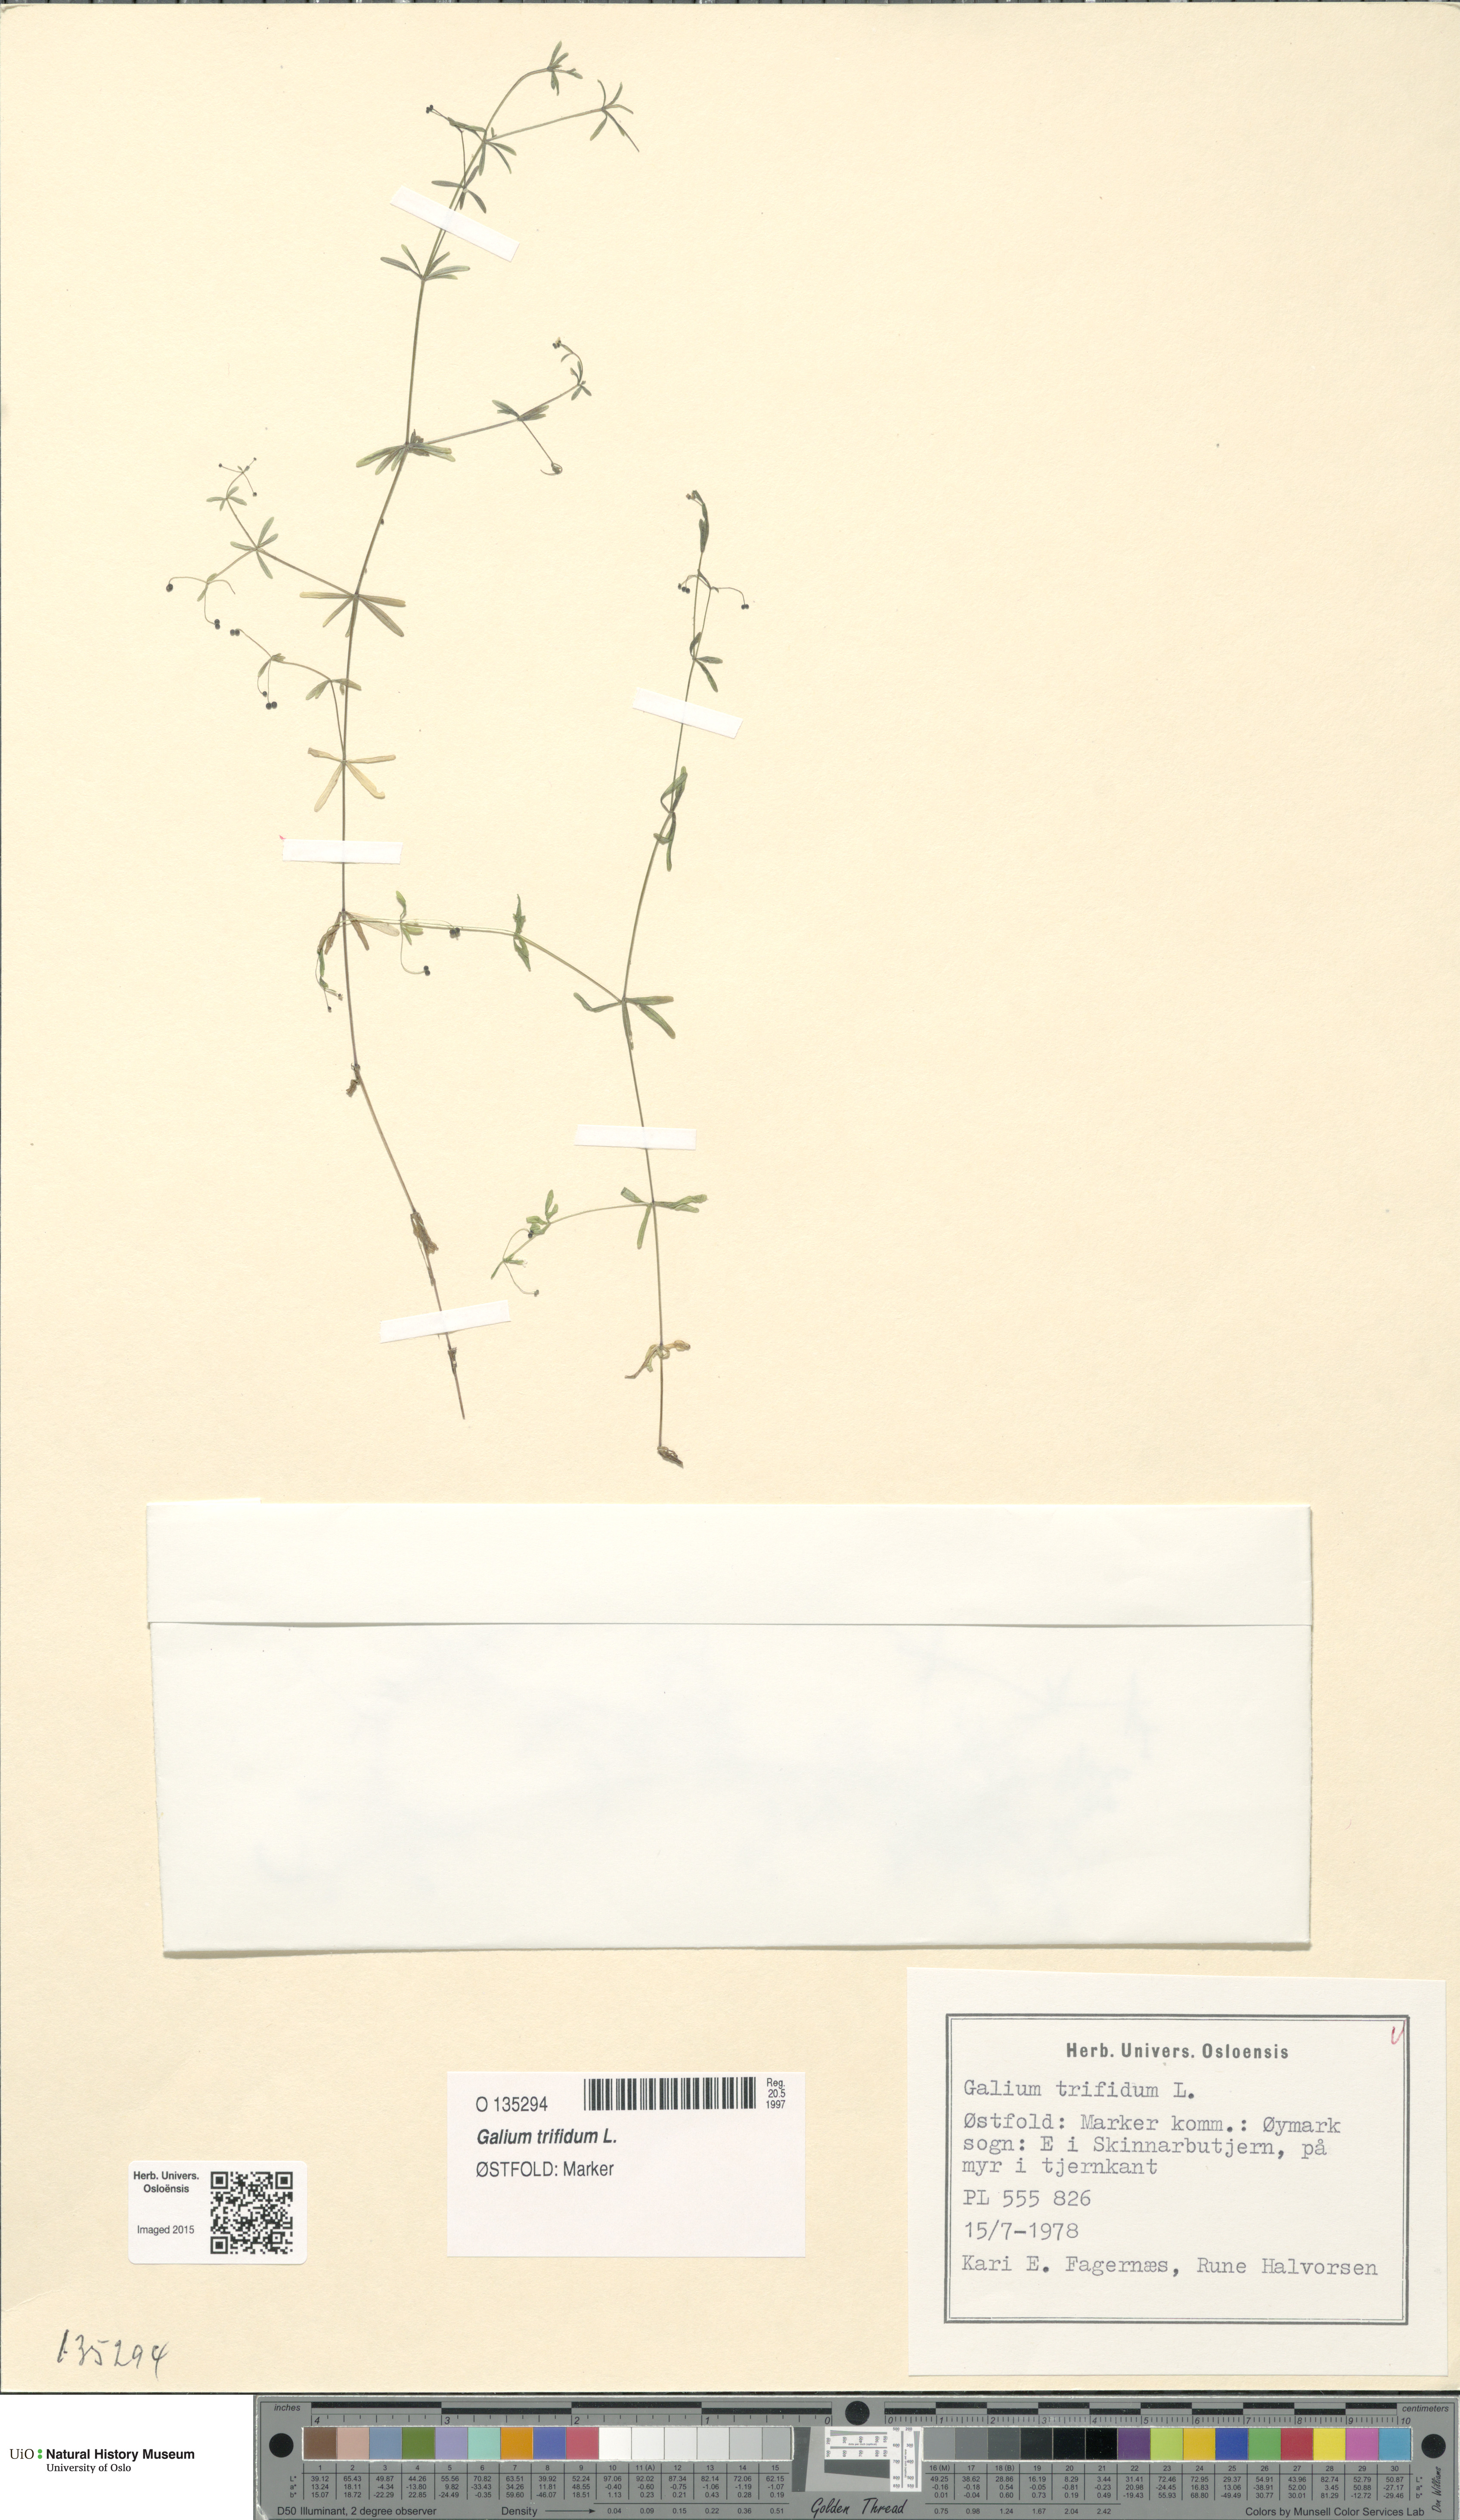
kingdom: Plantae
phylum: Tracheophyta
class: Magnoliopsida
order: Gentianales
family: Rubiaceae
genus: Galium
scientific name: Galium trifidum
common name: Small bedstraw
